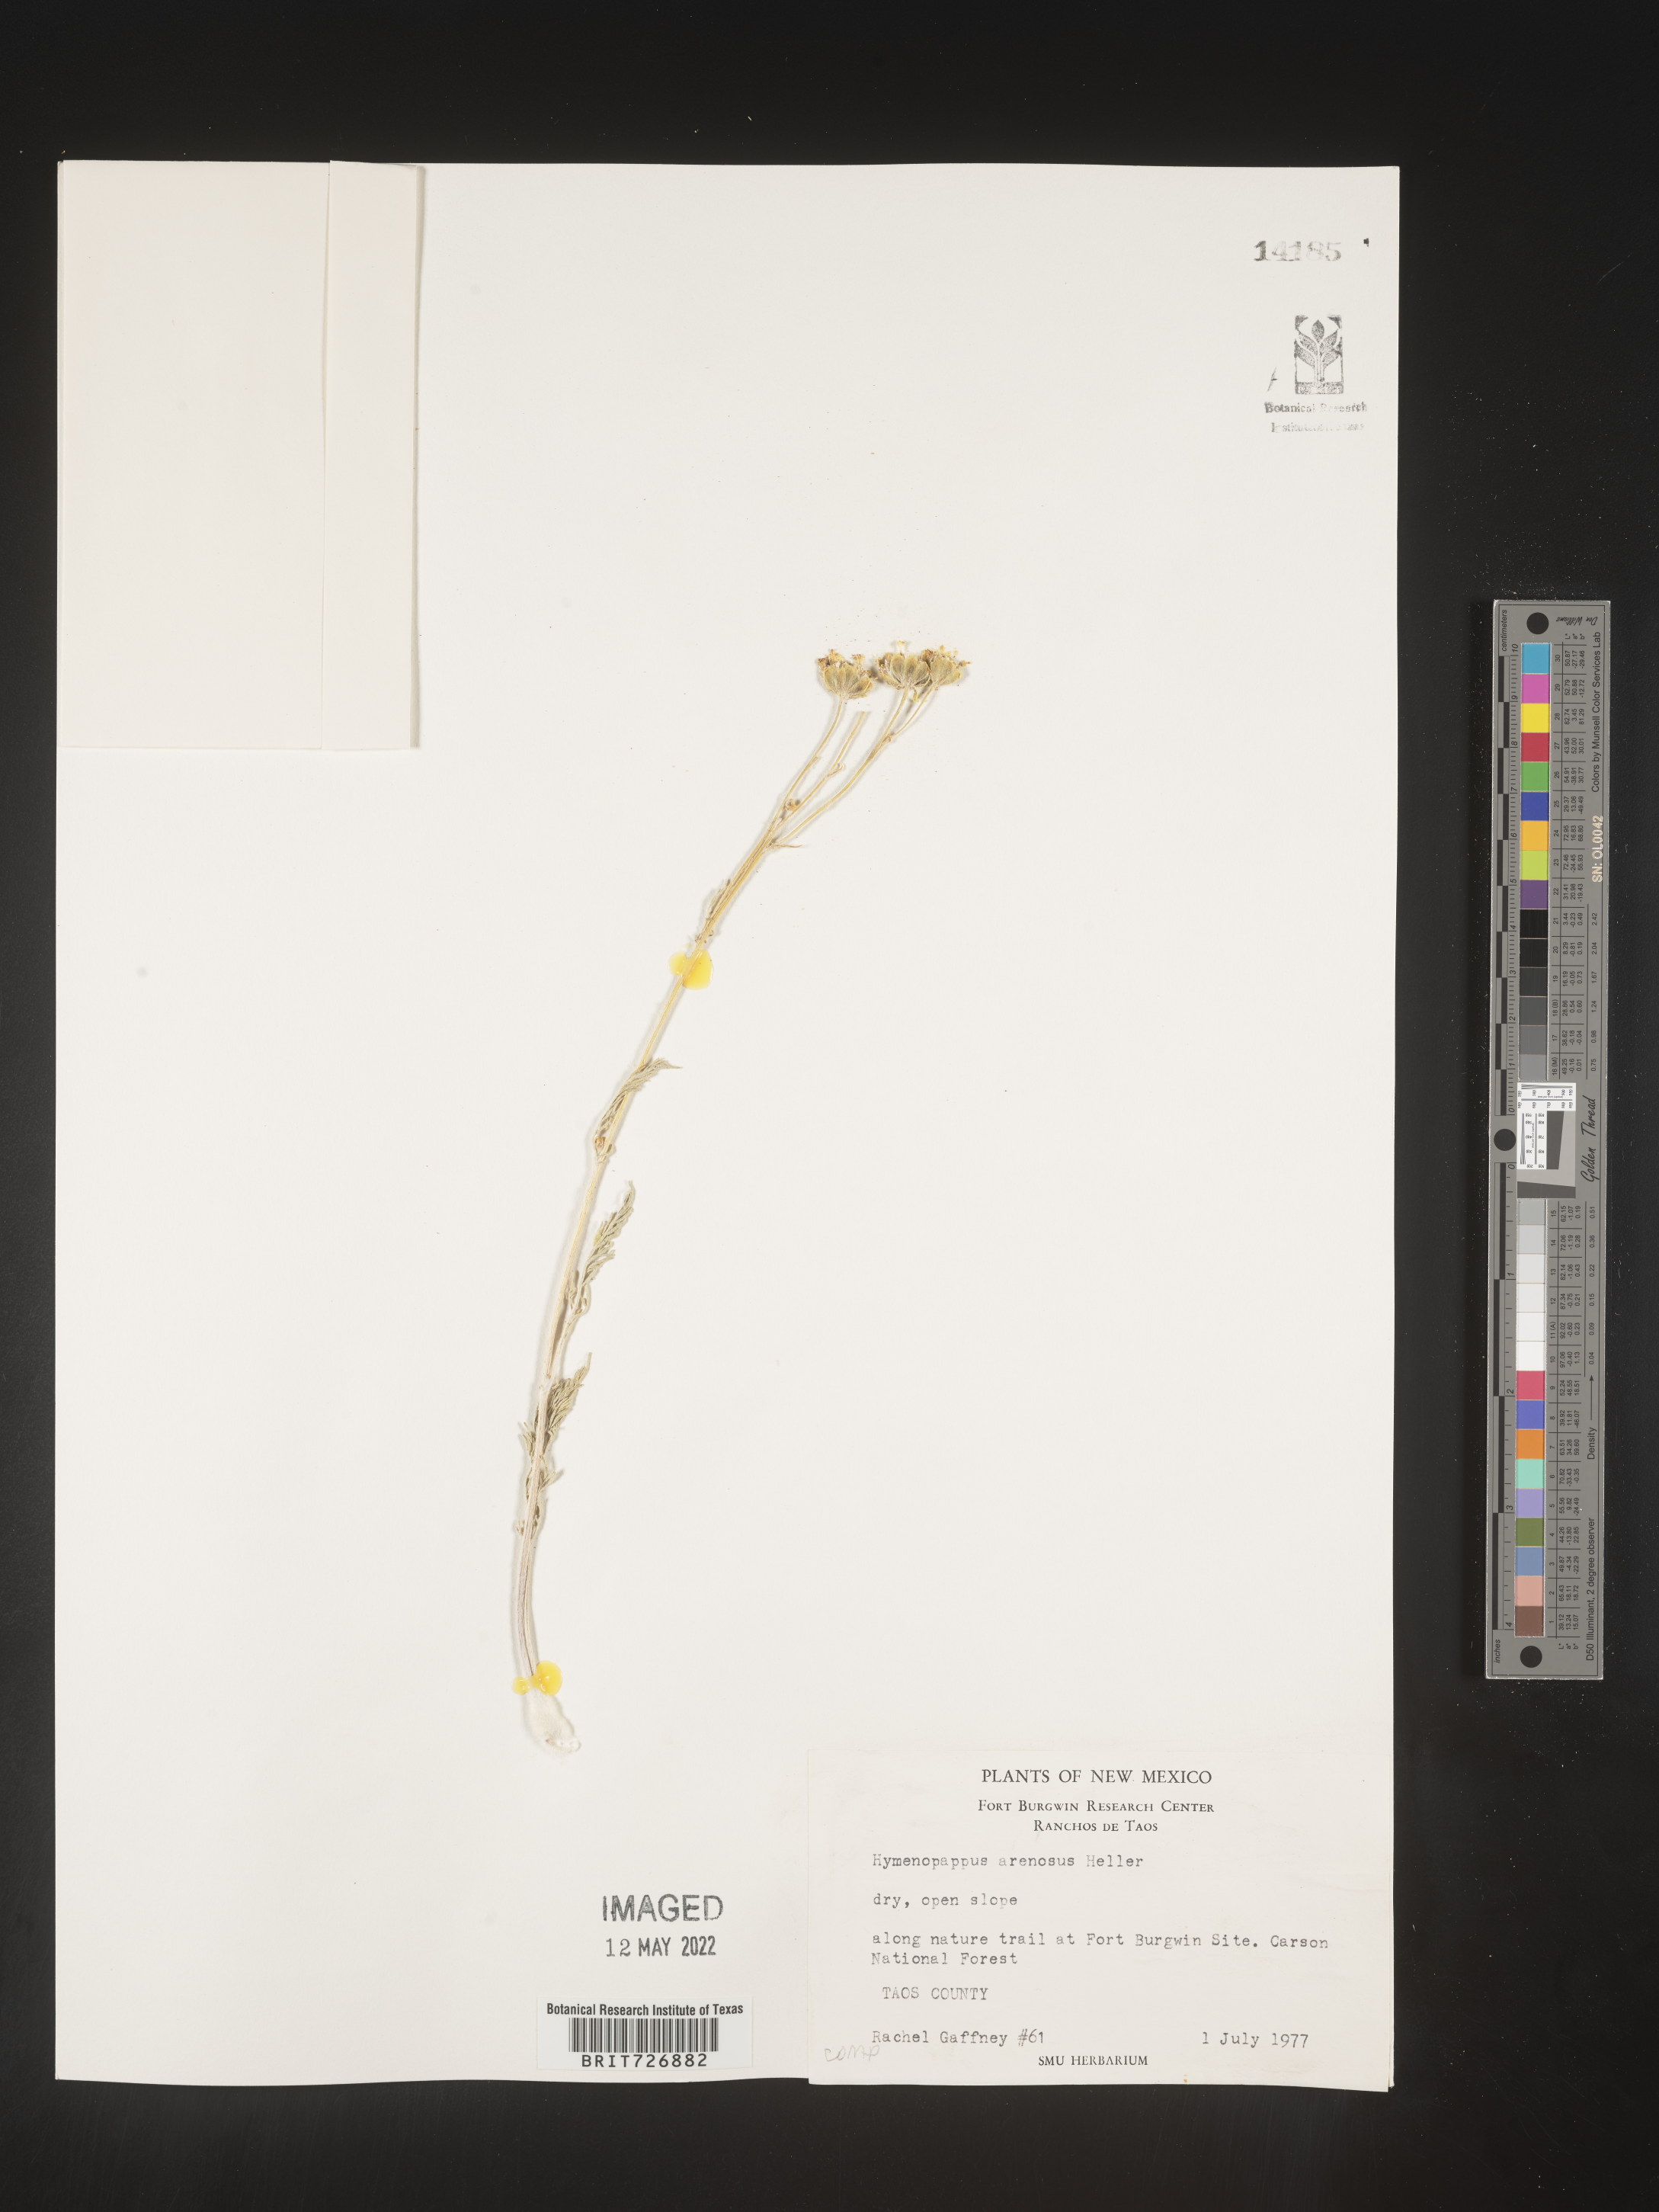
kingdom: Plantae
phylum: Tracheophyta
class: Magnoliopsida
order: Asterales
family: Asteraceae
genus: Hymenopappus
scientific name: Hymenopappus filifolius
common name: Columbia cutleaf
